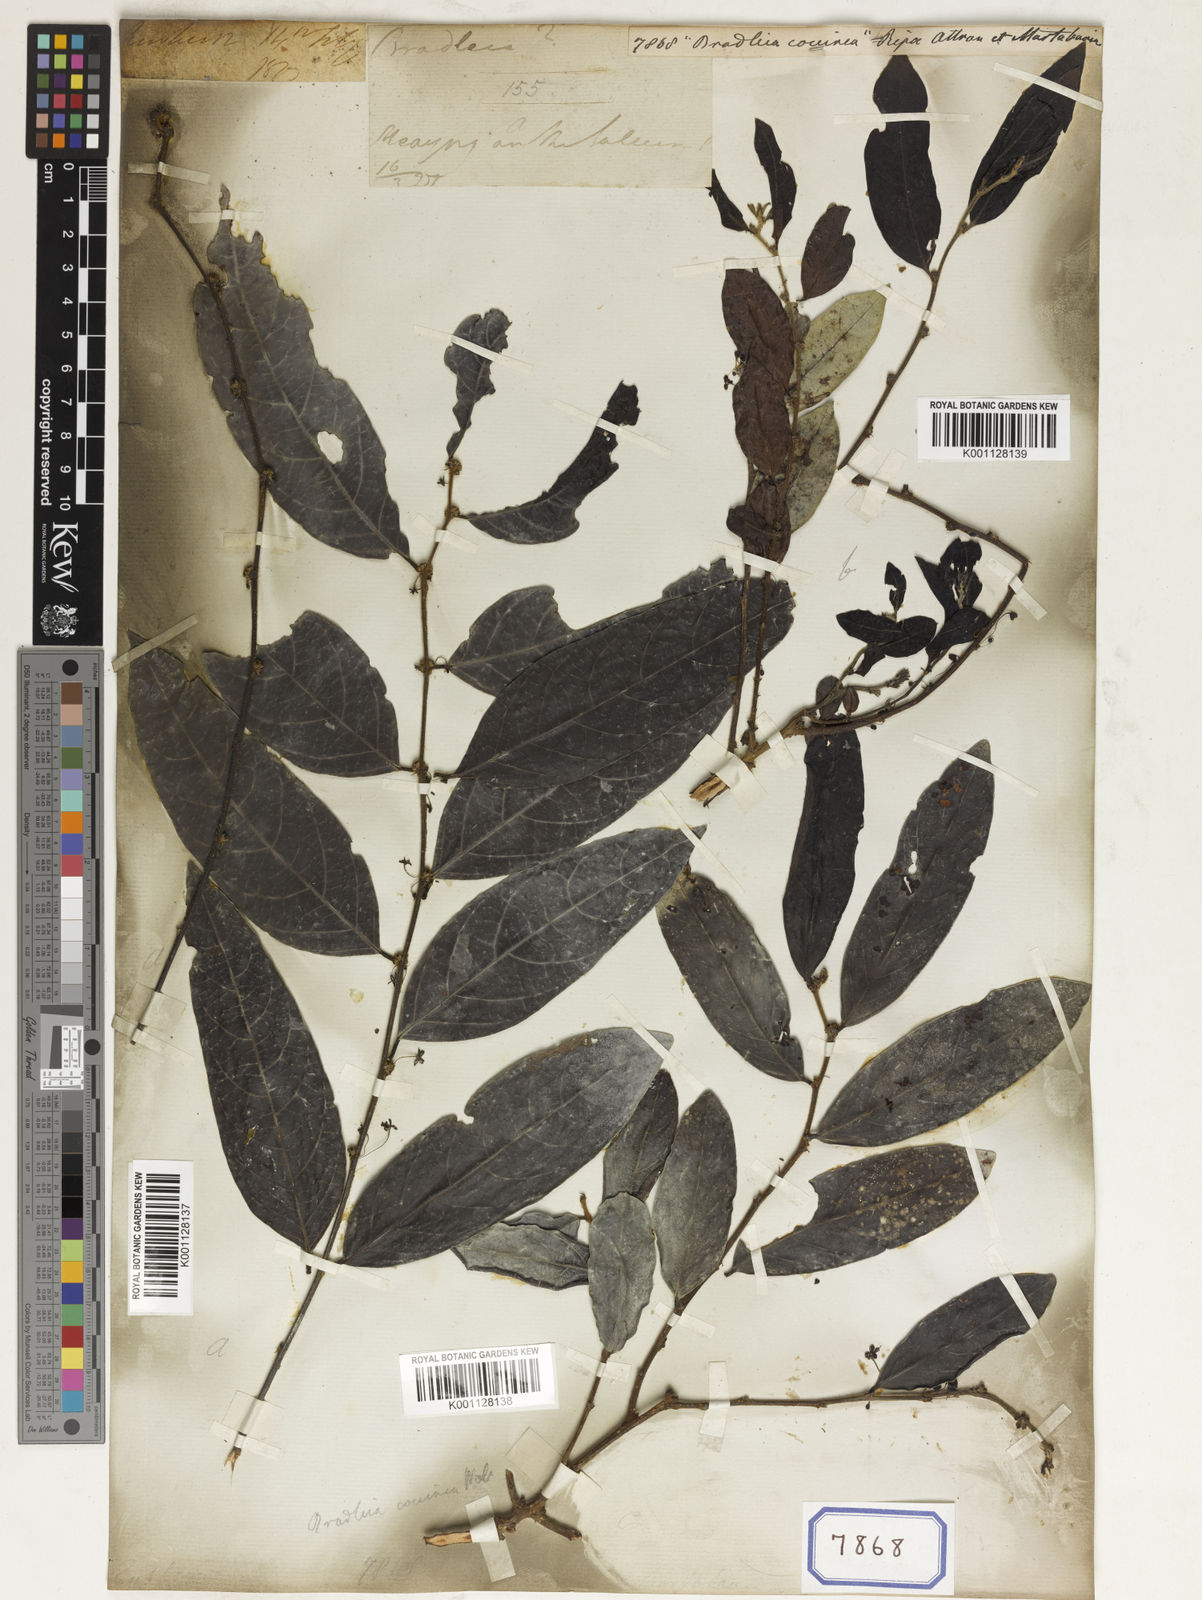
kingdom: Plantae
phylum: Tracheophyta
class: Magnoliopsida
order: Malpighiales
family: Euphorbiaceae
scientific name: Euphorbiaceae
